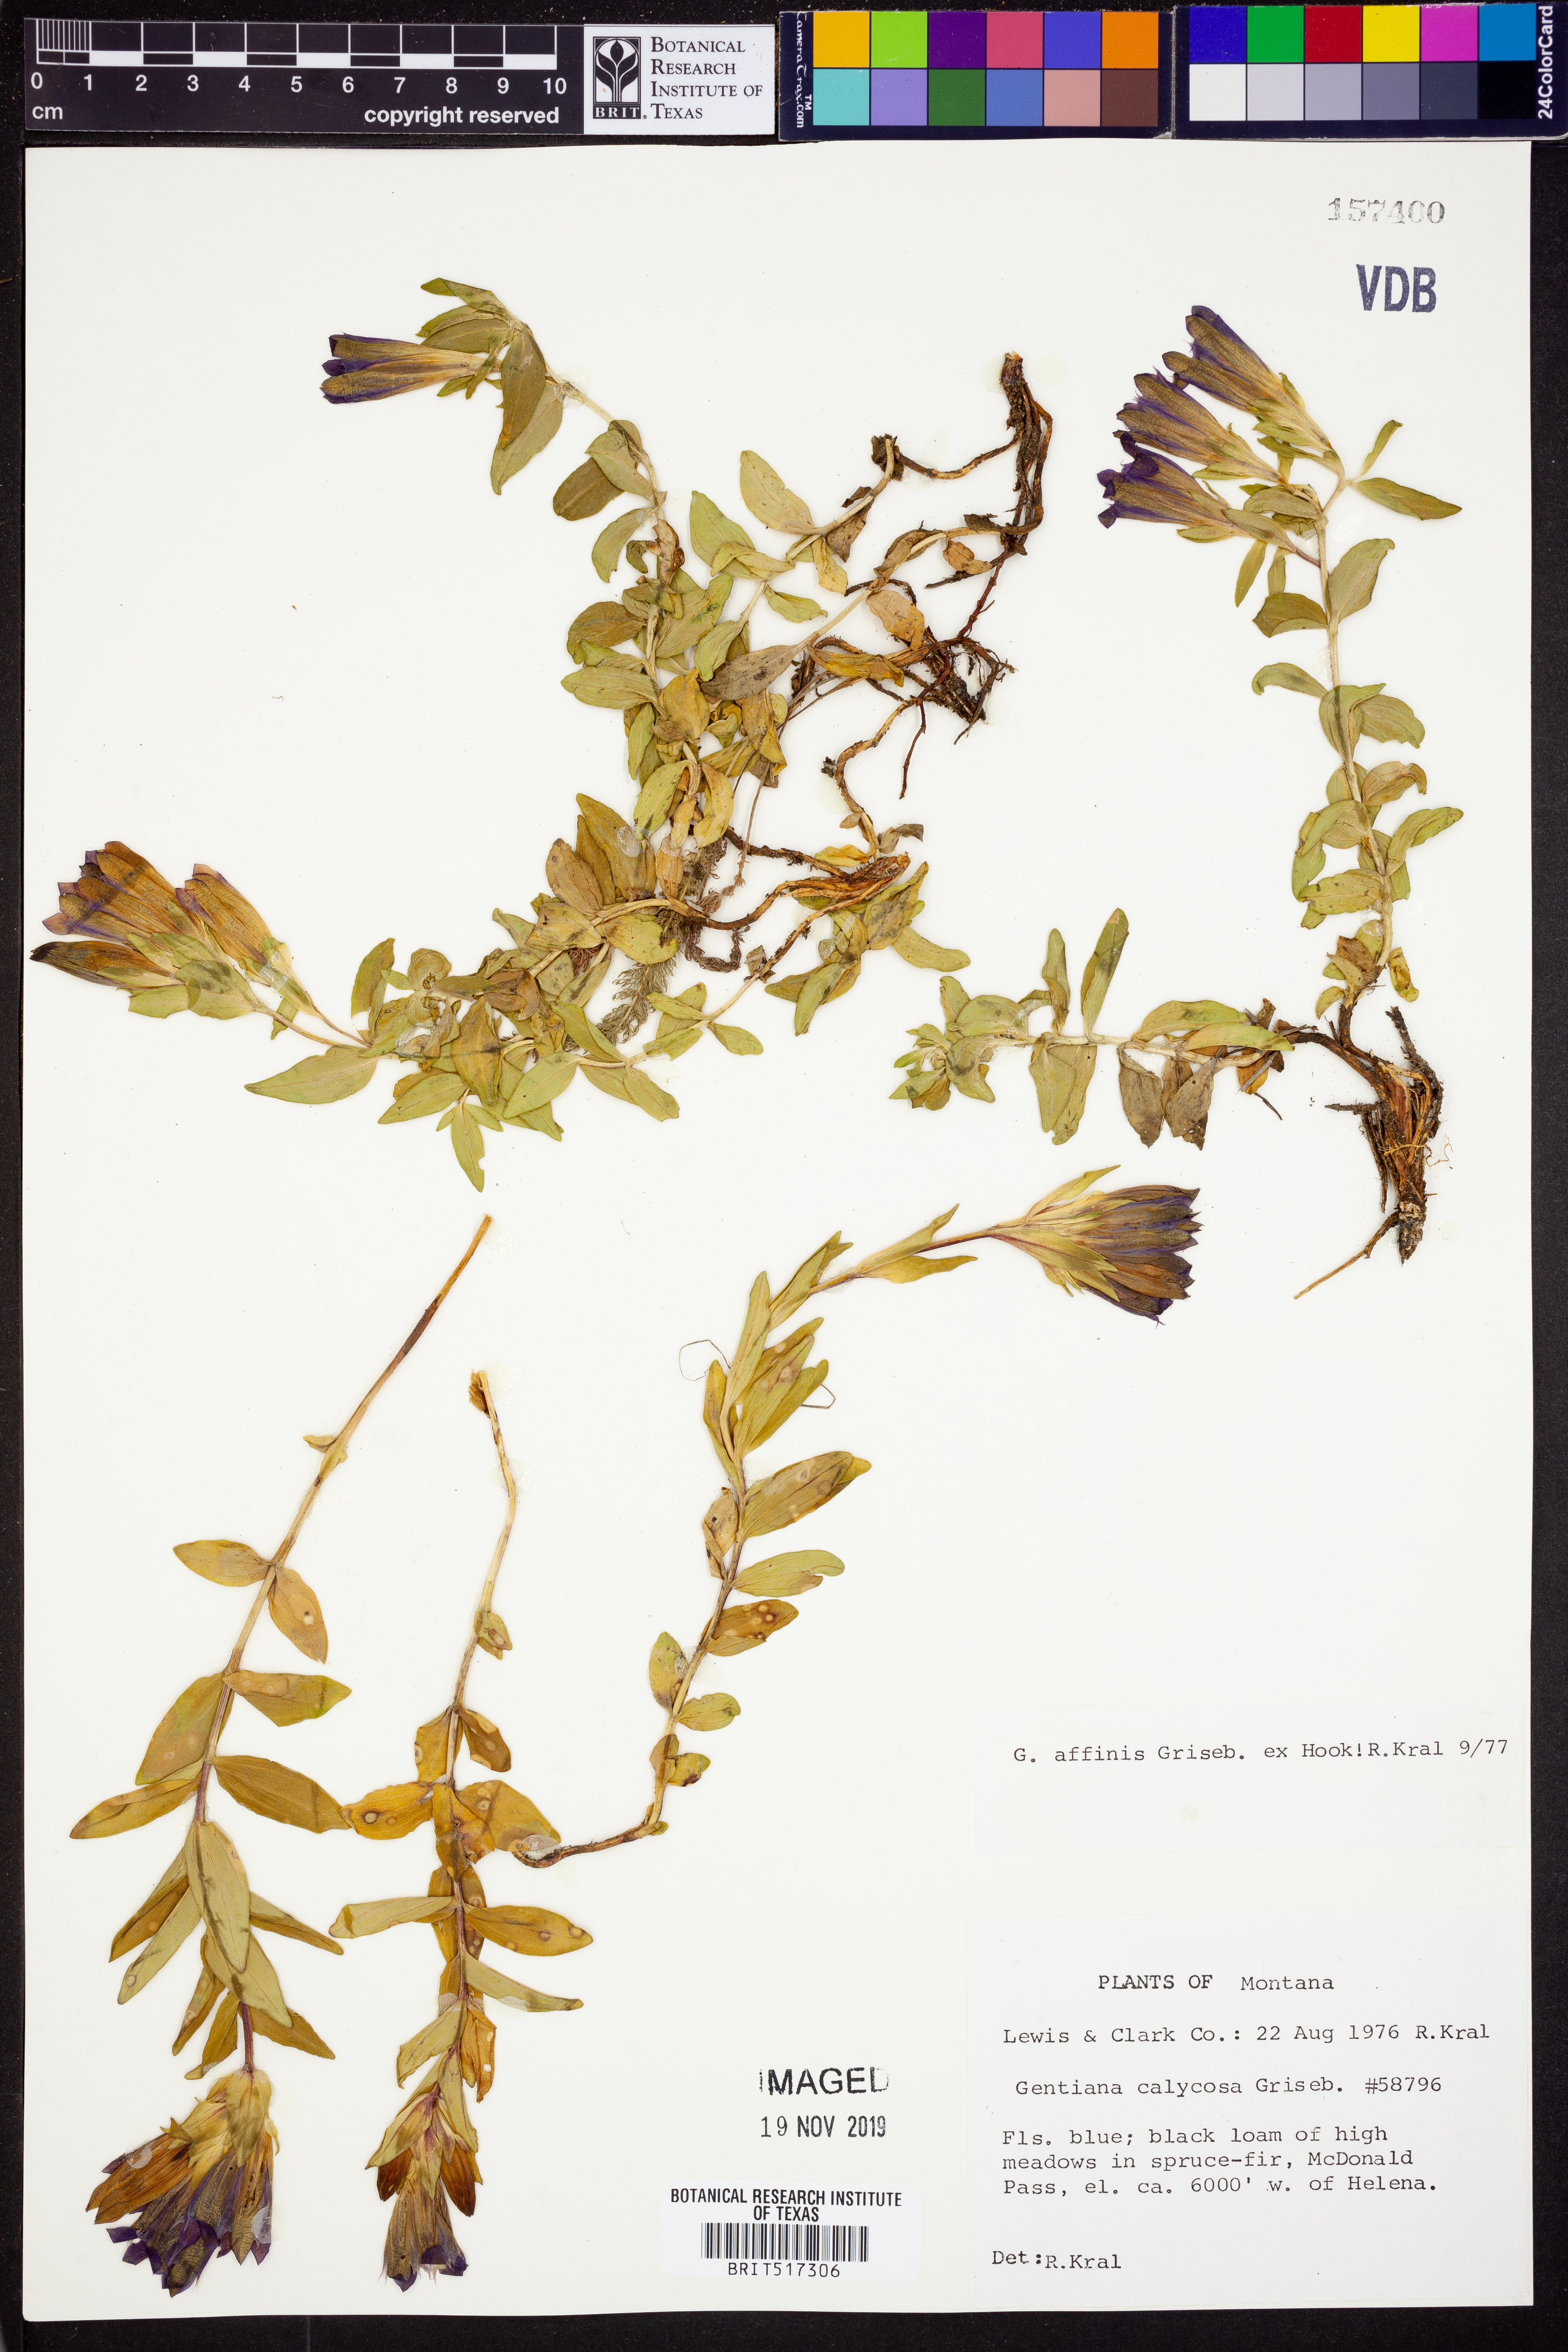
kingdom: Plantae
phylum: Tracheophyta
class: Magnoliopsida
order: Gentianales
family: Gentianaceae
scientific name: Gentianaceae
